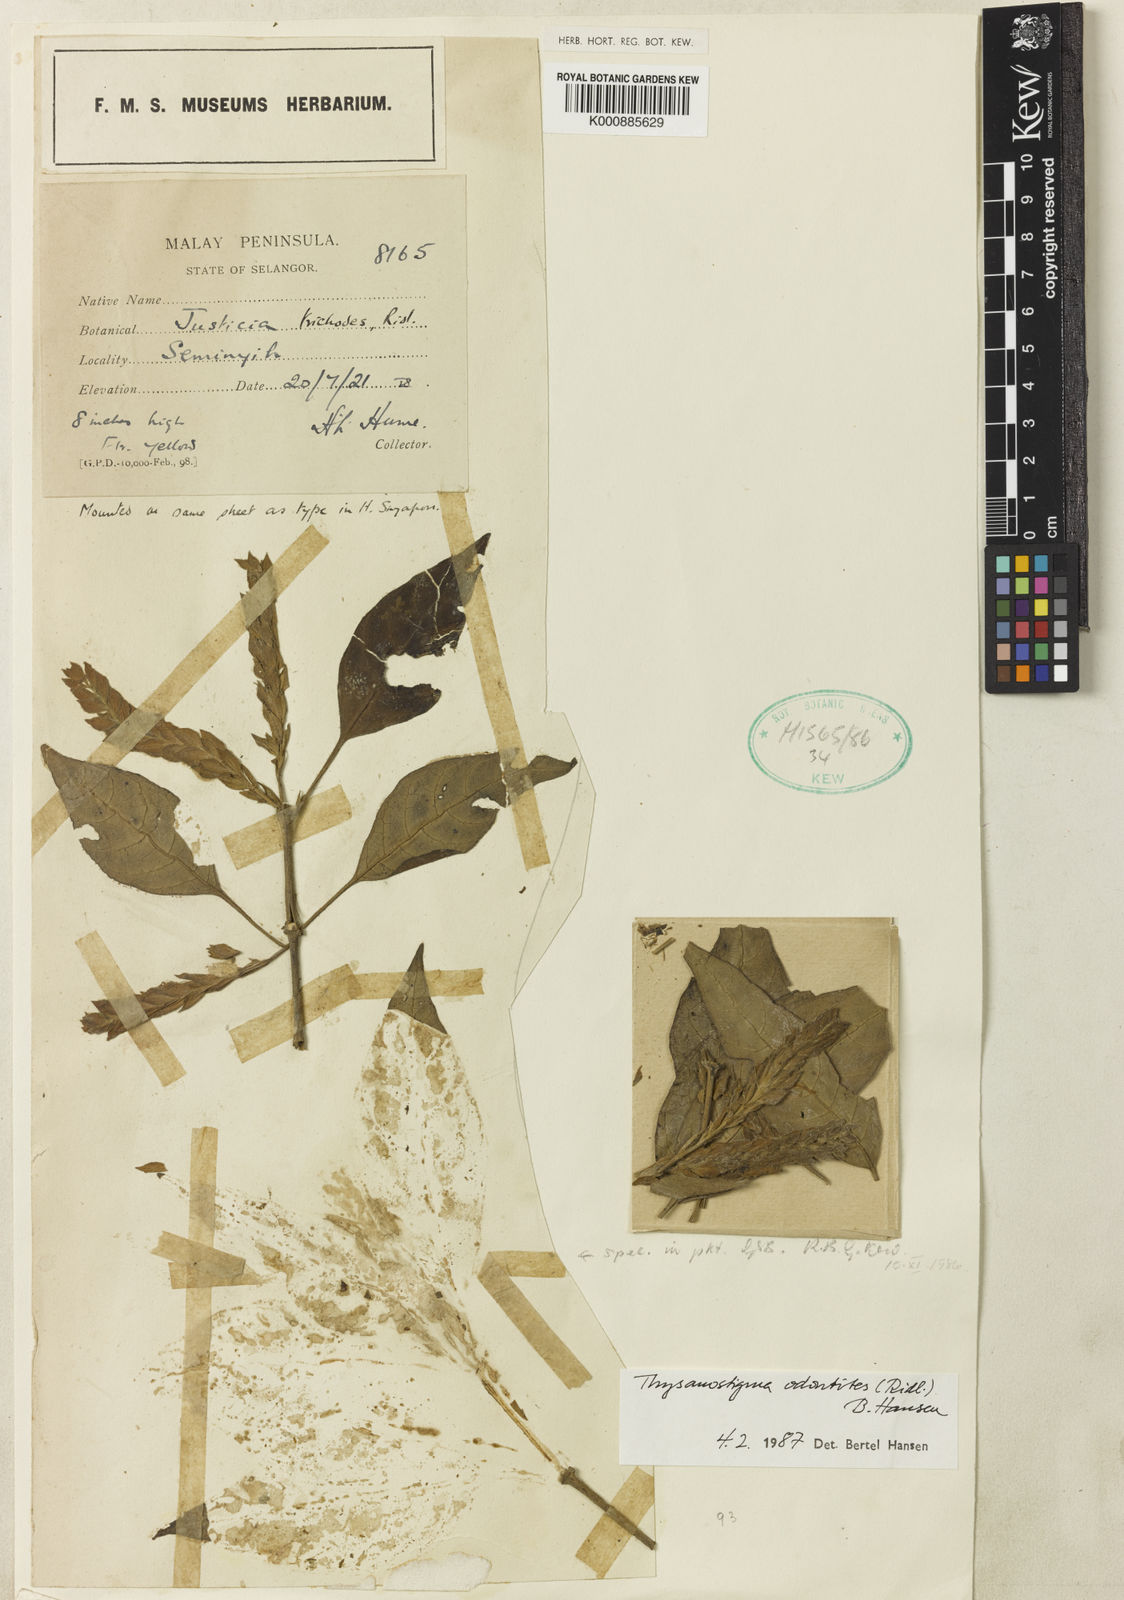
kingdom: Plantae
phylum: Tracheophyta
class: Magnoliopsida
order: Lamiales
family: Acanthaceae
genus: Thysanostigma
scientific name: Thysanostigma odontites
